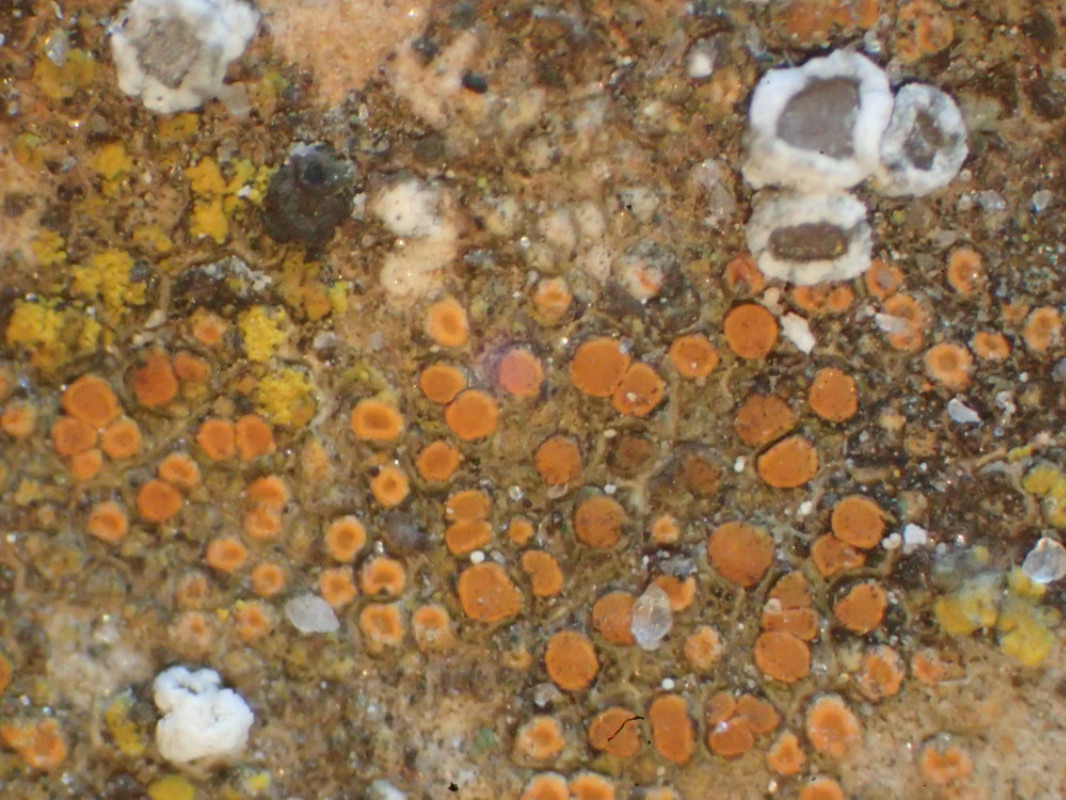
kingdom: Fungi
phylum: Ascomycota
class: Lecanoromycetes
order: Teloschistales
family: Teloschistaceae
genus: Athallia
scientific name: Athallia holocarpa
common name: liden orangelav
